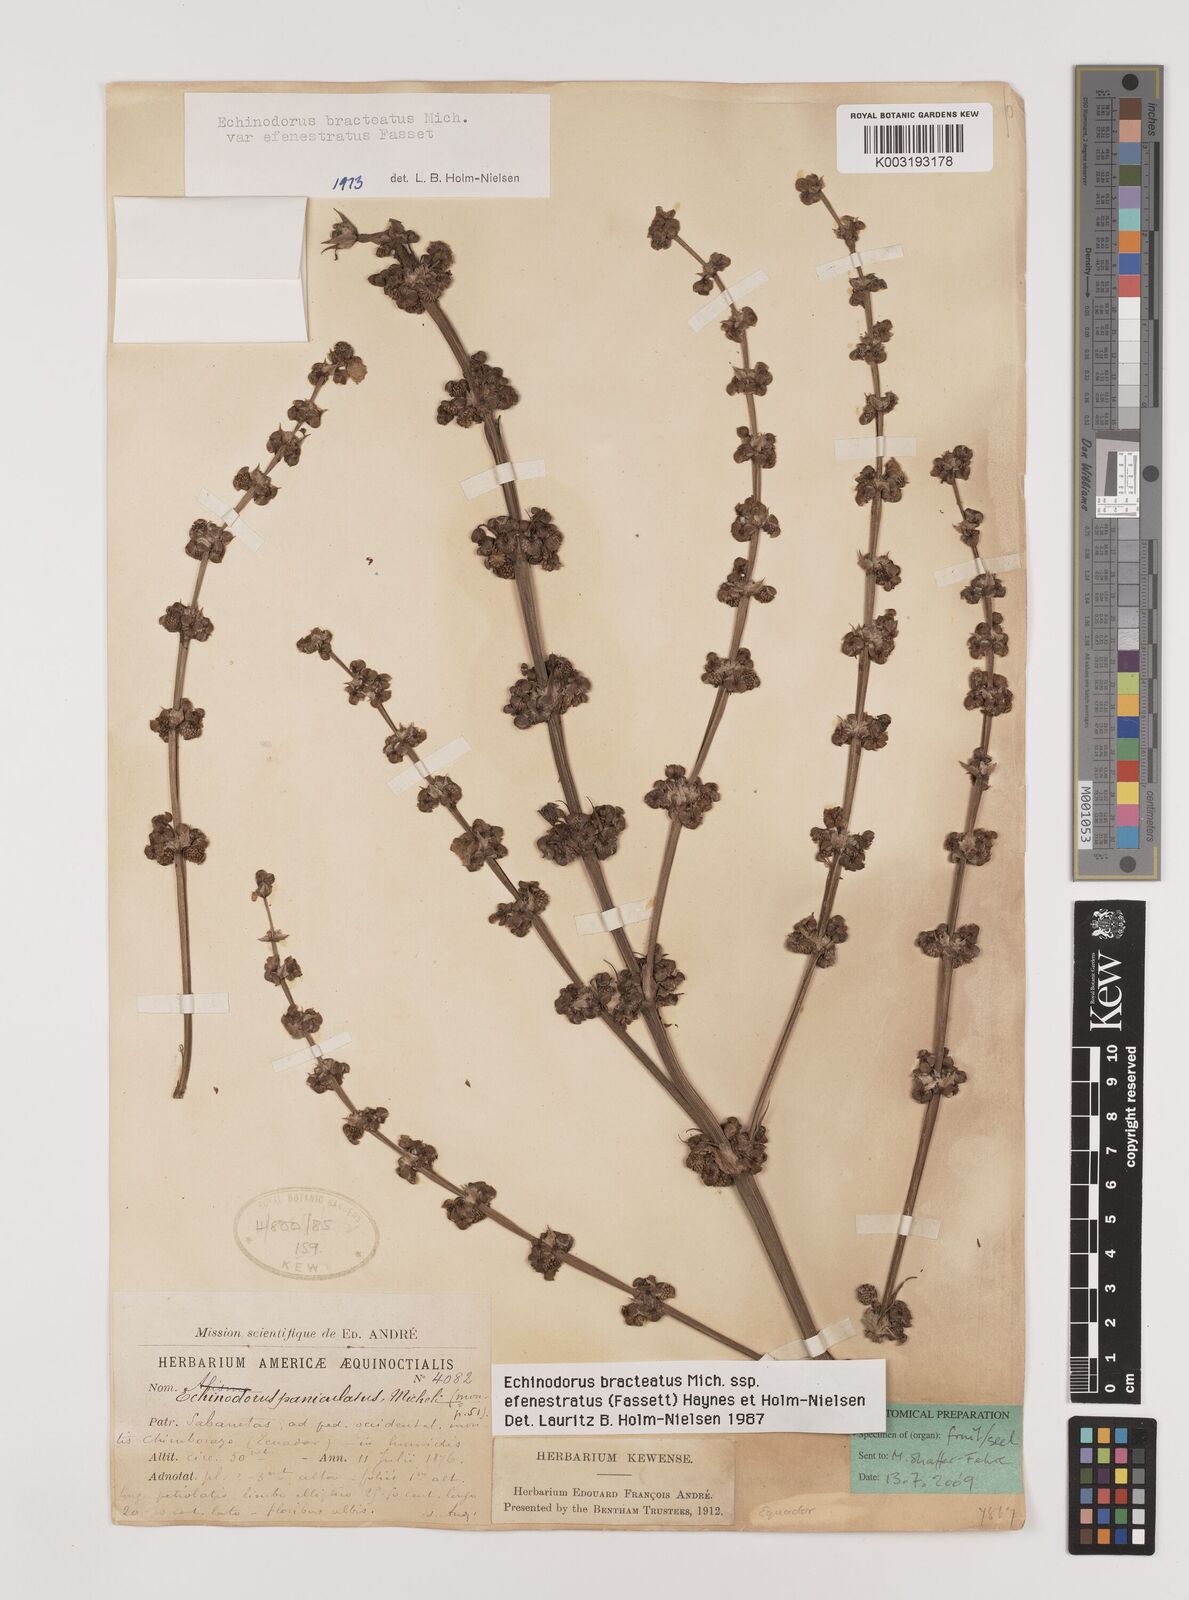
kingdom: Plantae
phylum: Tracheophyta
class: Liliopsida
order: Alismatales
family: Alismataceae
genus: Aquarius
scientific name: Aquarius bracteatus
